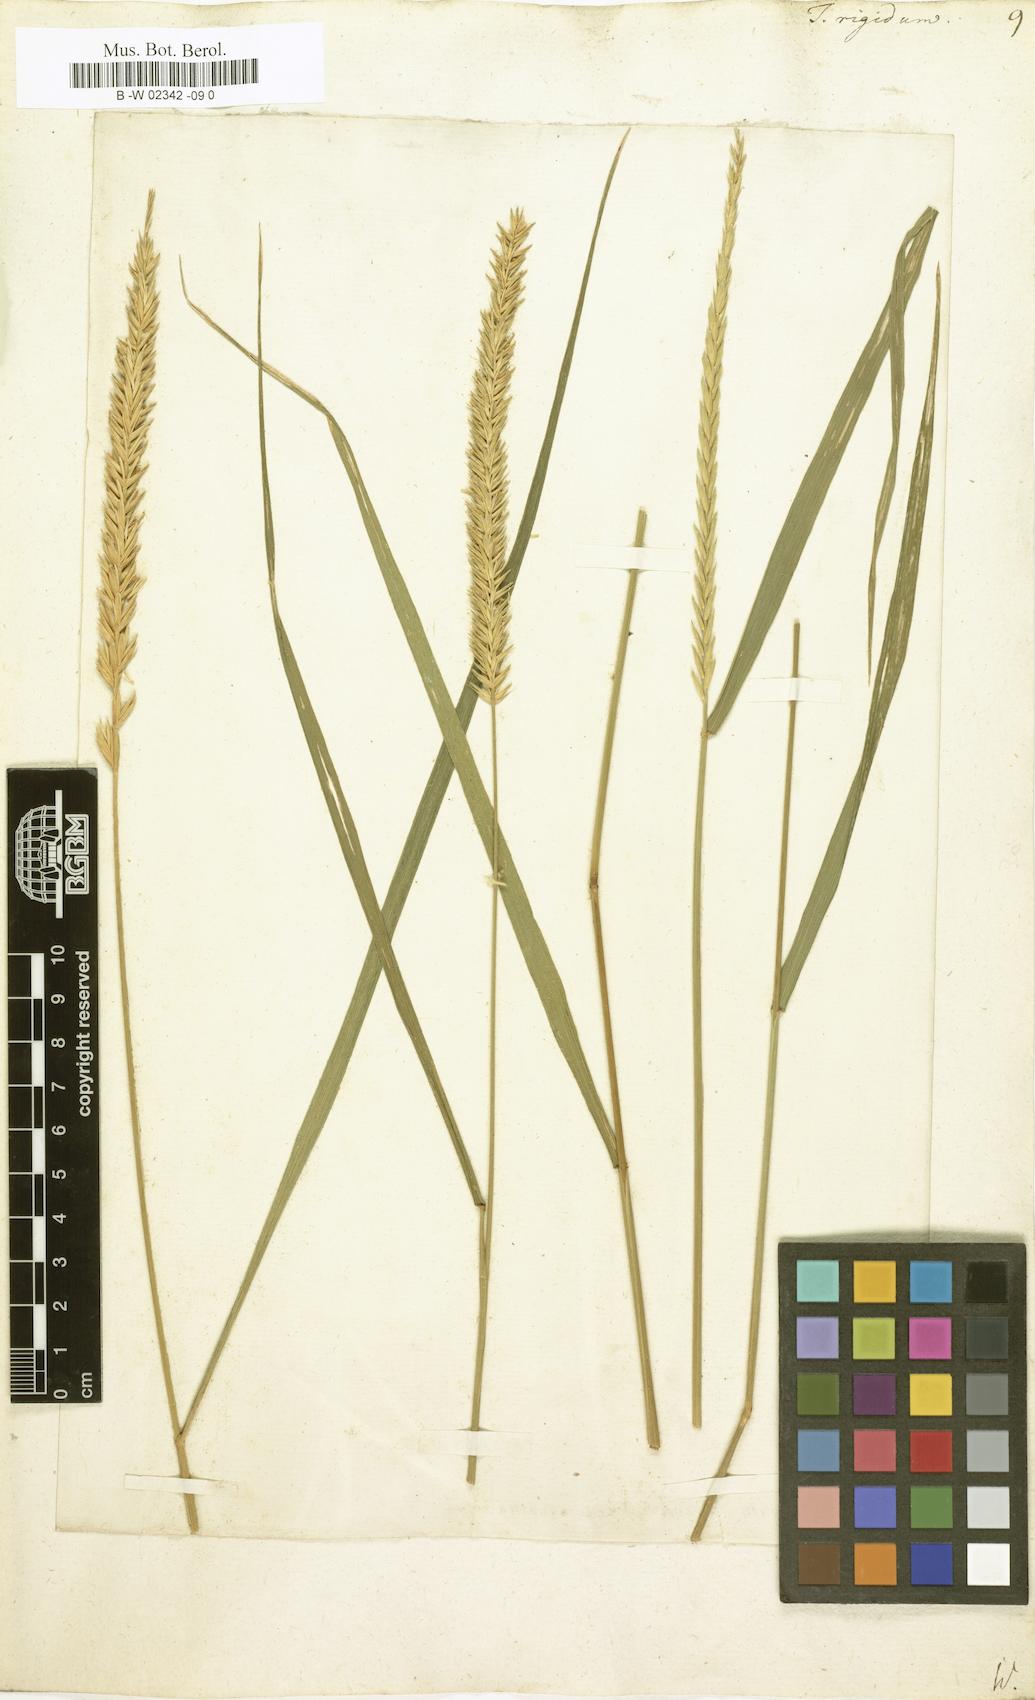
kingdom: Plantae
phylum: Tracheophyta
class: Liliopsida
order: Poales
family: Poaceae
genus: Thinopyrum
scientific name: Thinopyrum
